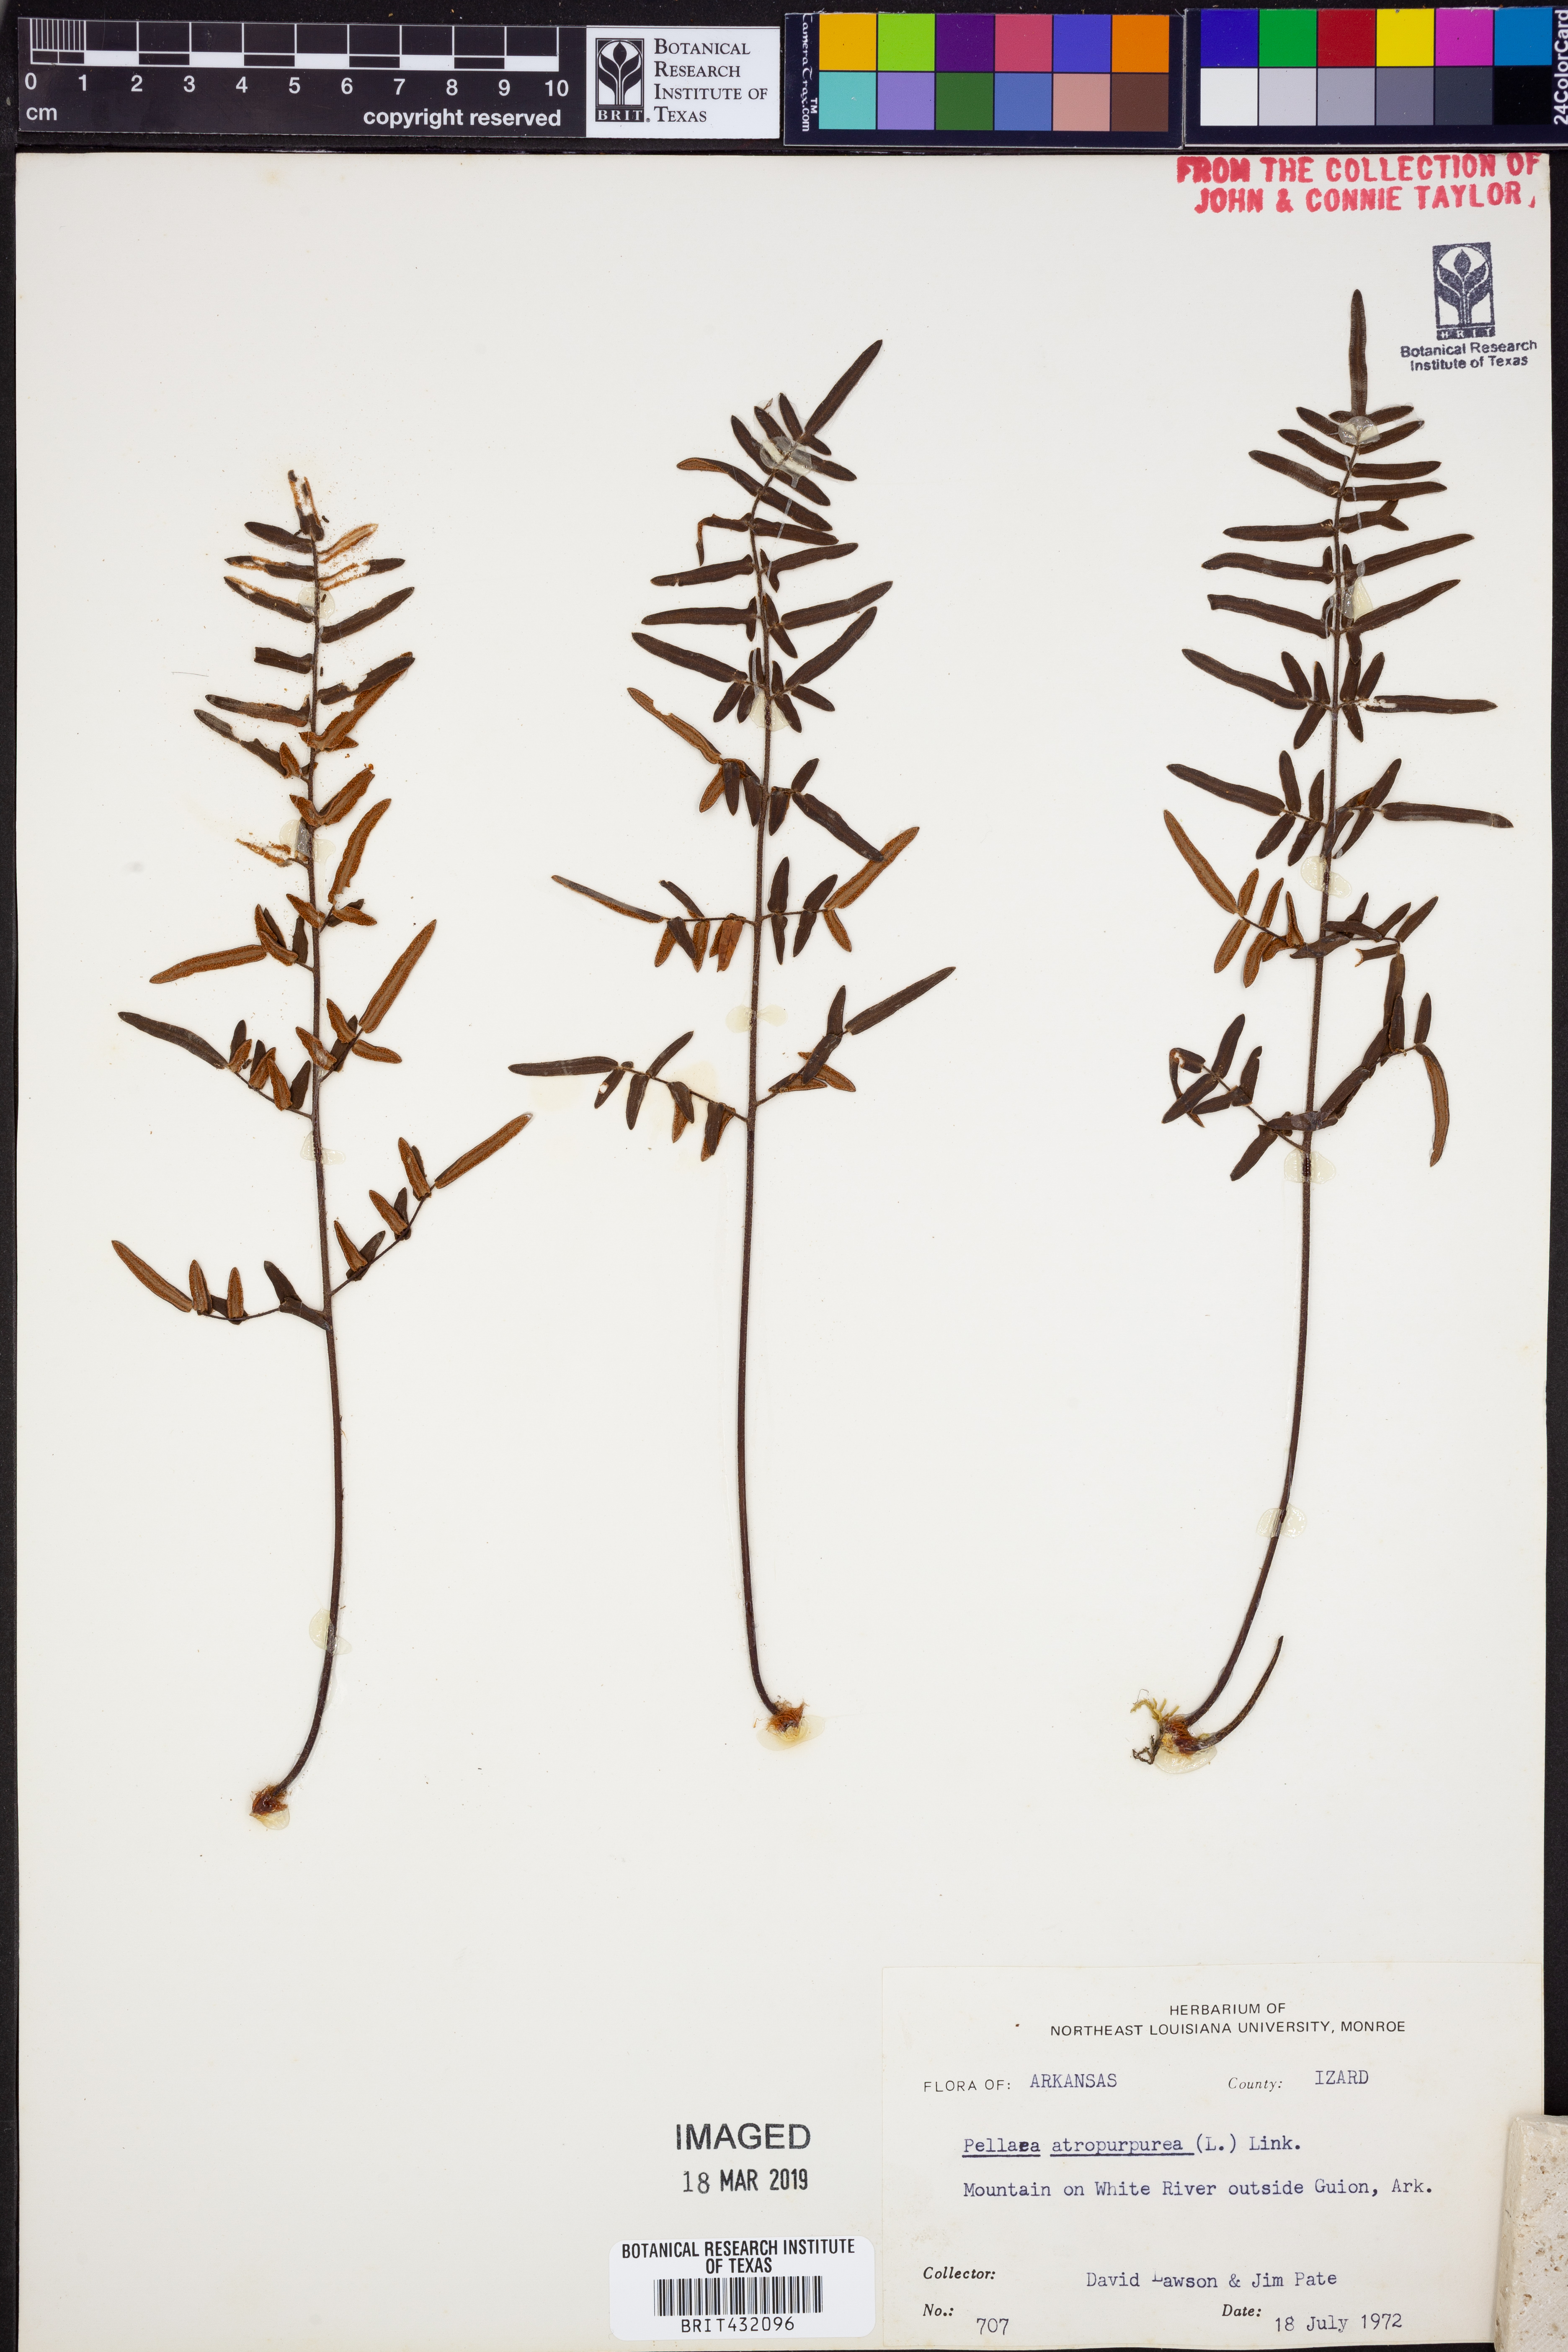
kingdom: Plantae
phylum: Tracheophyta
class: Polypodiopsida
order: Polypodiales
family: Pteridaceae
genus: Pellaea
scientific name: Pellaea atropurpurea
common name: Hairy cliffbrake
